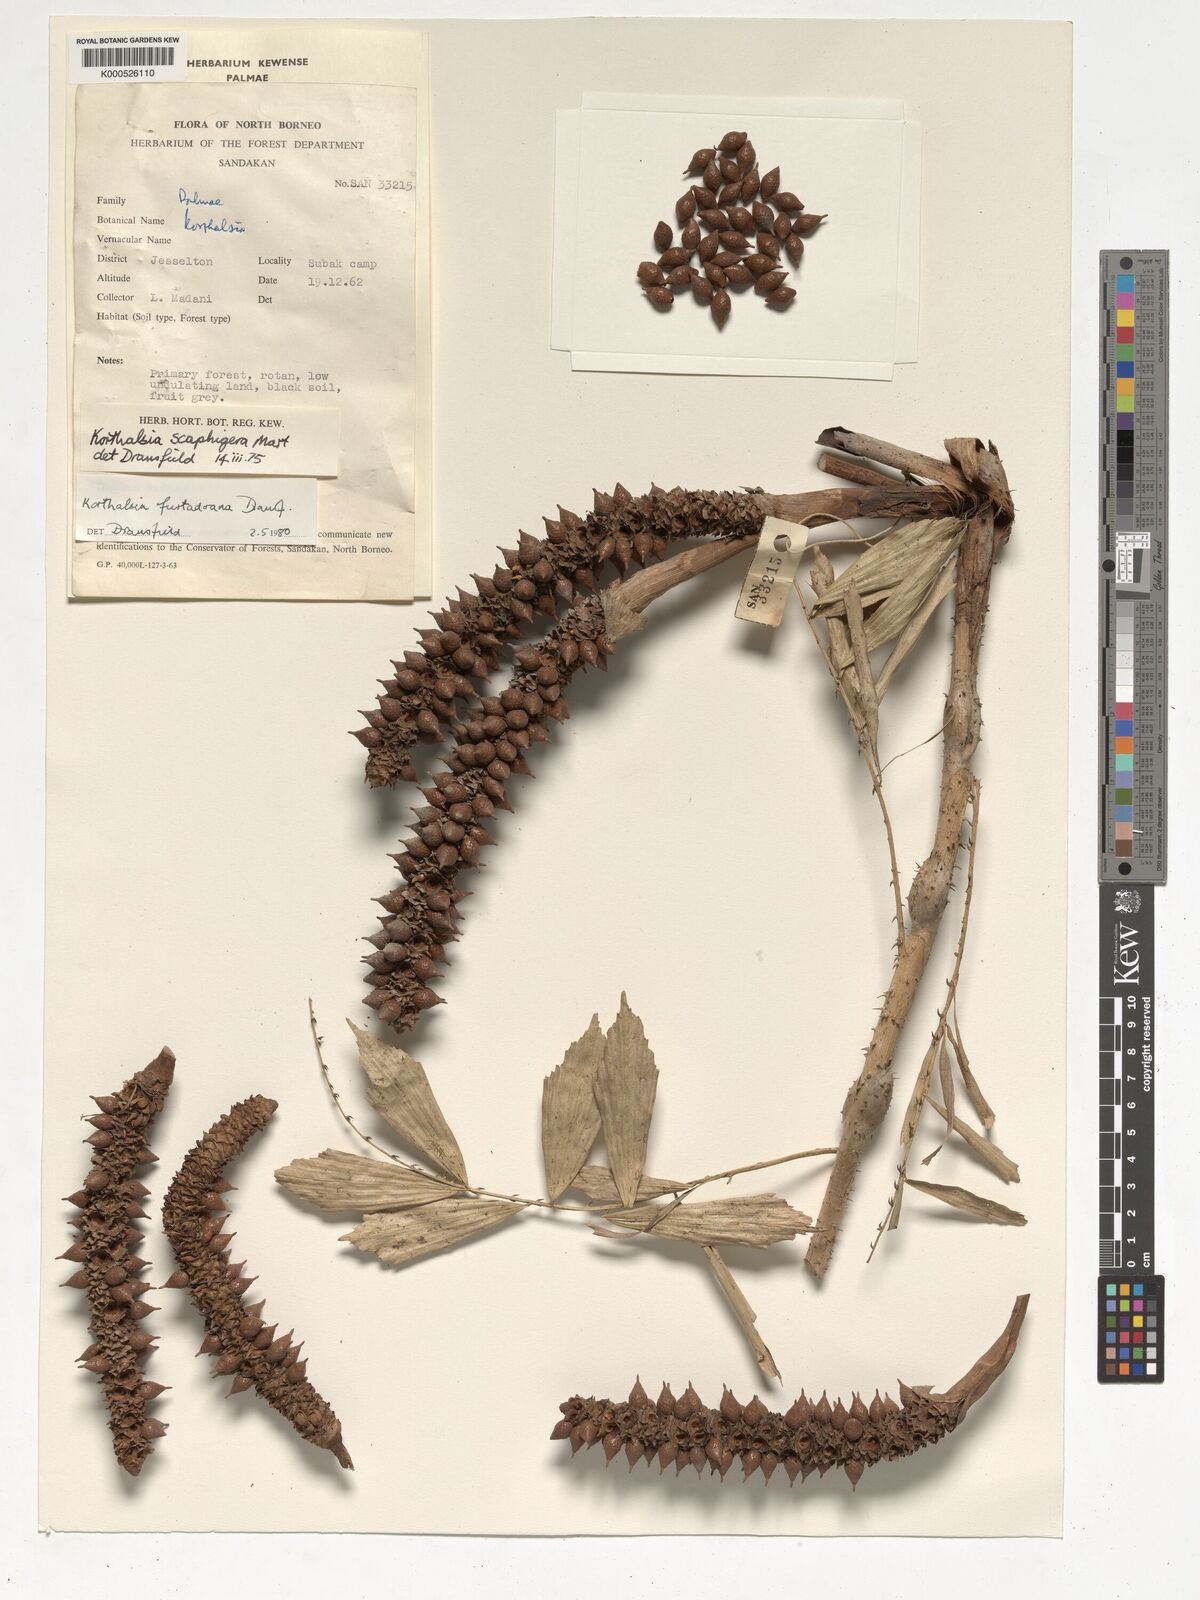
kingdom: Plantae
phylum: Tracheophyta
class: Liliopsida
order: Arecales
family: Arecaceae
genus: Korthalsia
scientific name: Korthalsia furtadoana
